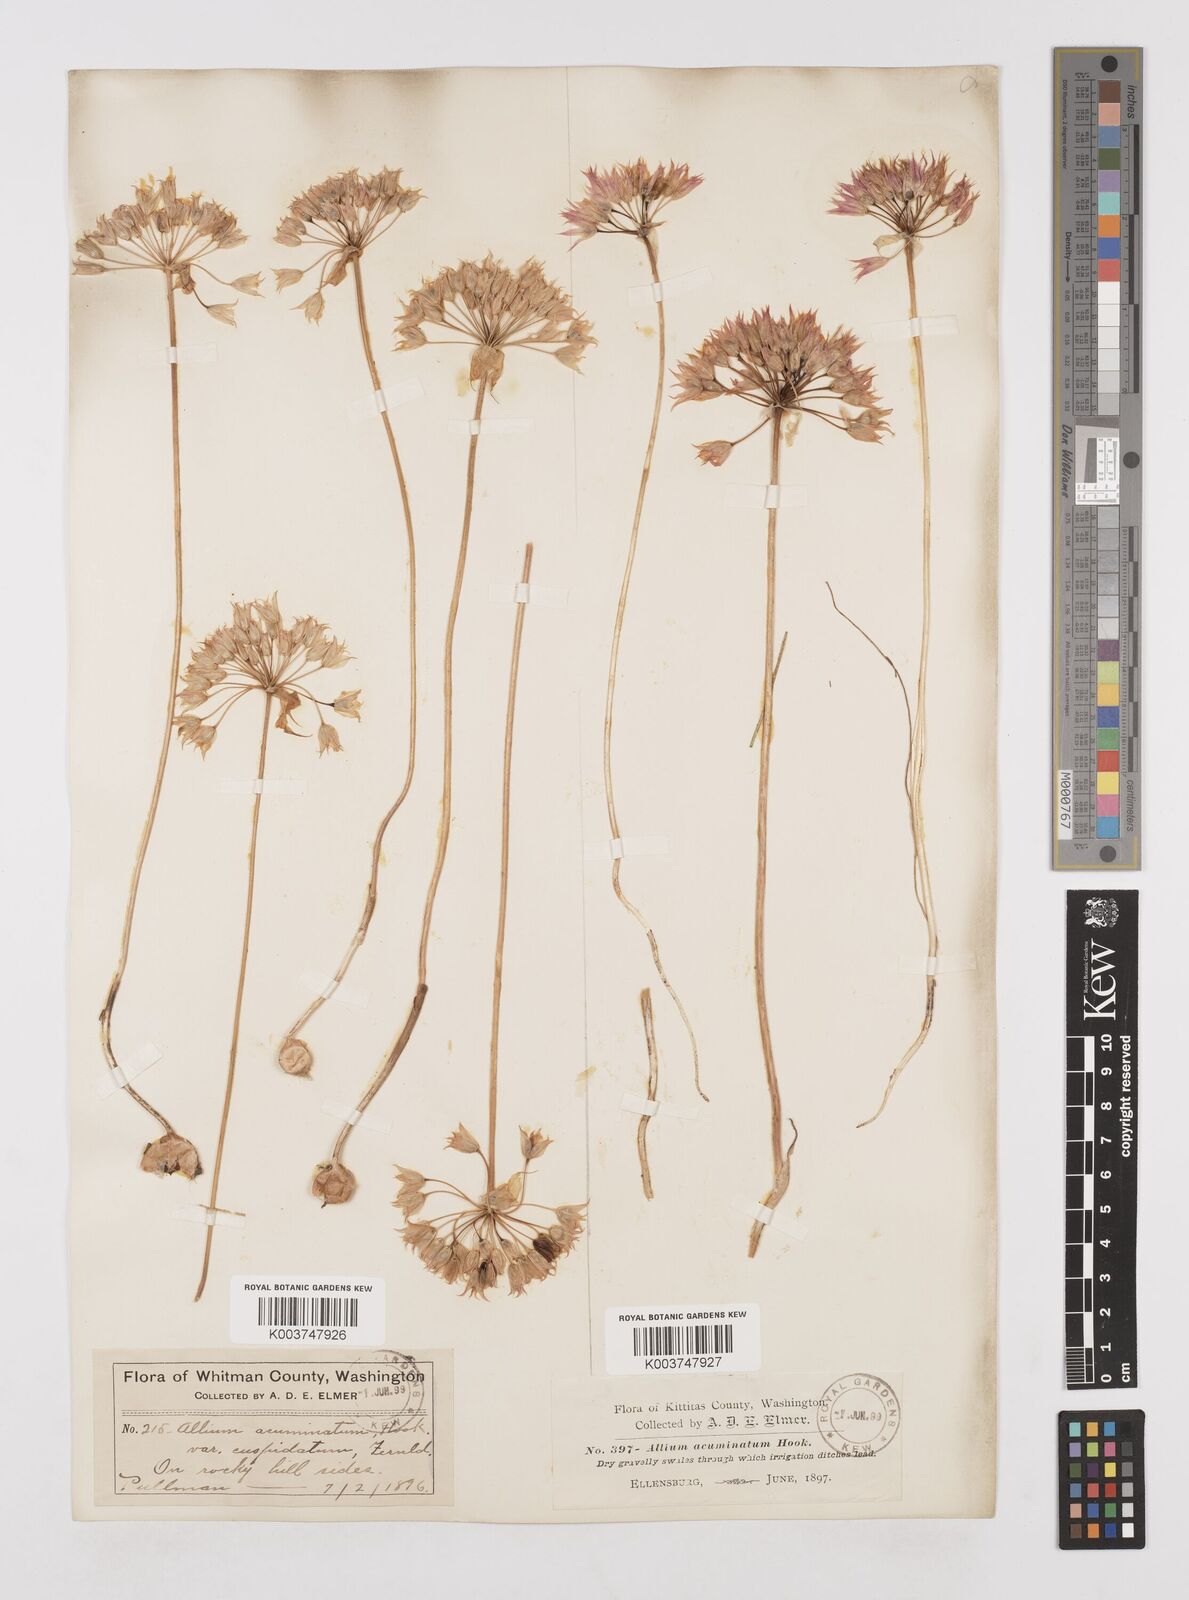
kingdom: Plantae
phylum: Tracheophyta
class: Liliopsida
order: Asparagales
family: Amaryllidaceae
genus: Allium
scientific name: Allium acuminatum
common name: Hooker's onion
